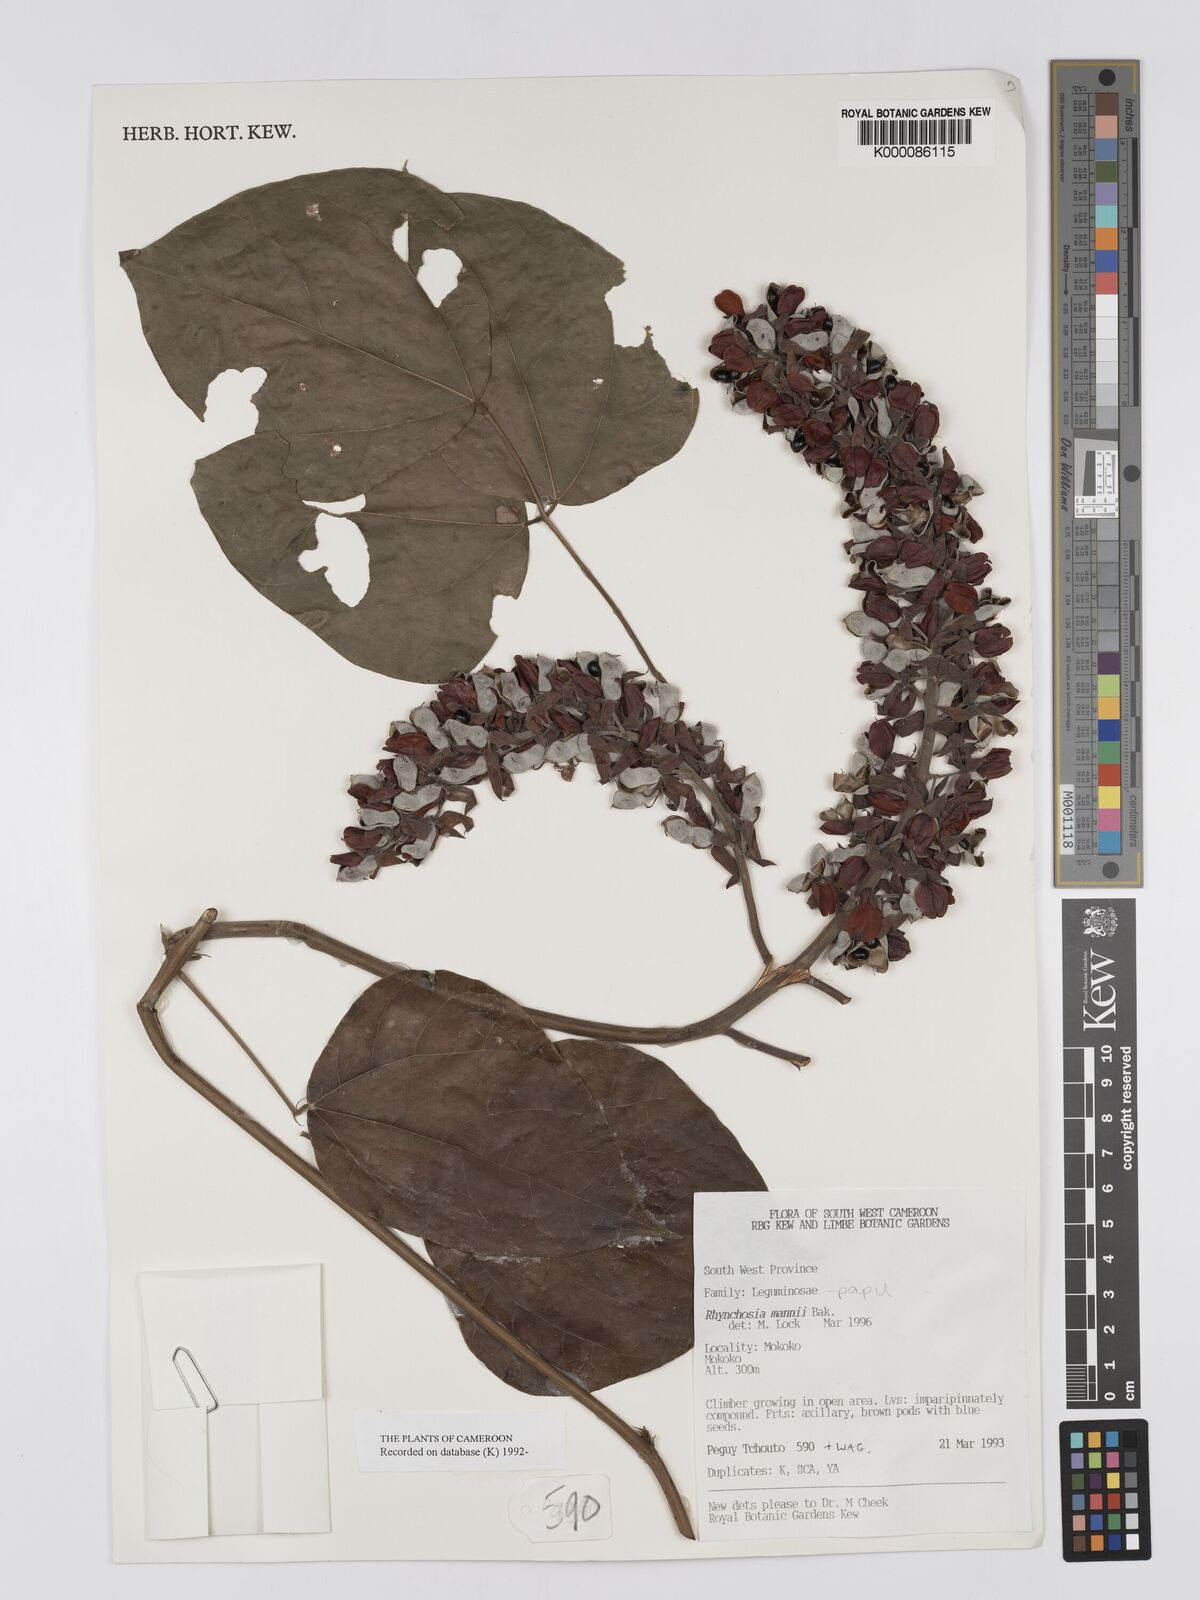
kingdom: Plantae
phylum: Tracheophyta
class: Magnoliopsida
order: Fabales
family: Fabaceae
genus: Rhynchosia
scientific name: Rhynchosia mannii
